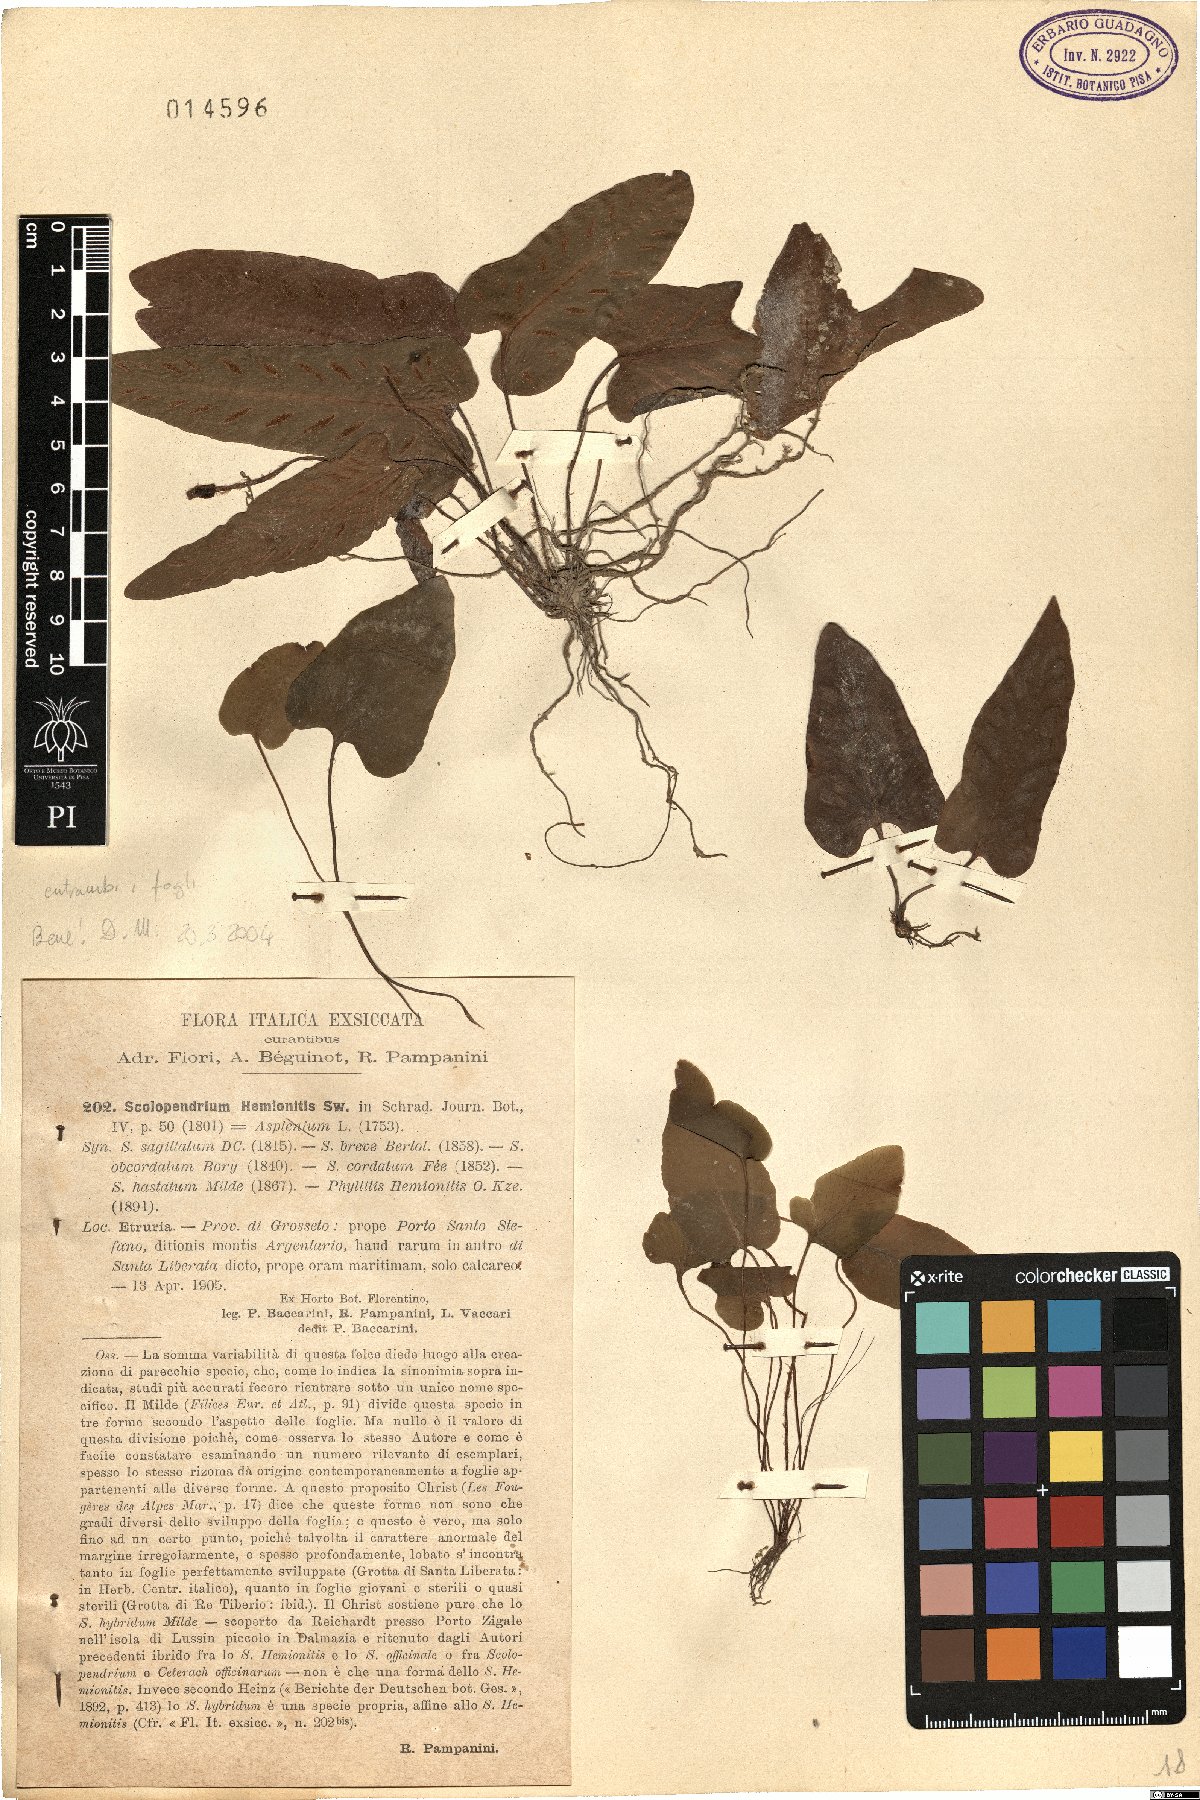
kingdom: Plantae
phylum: Tracheophyta
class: Polypodiopsida
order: Polypodiales
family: Aspleniaceae
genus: Asplenium
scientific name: Asplenium sagittatum
